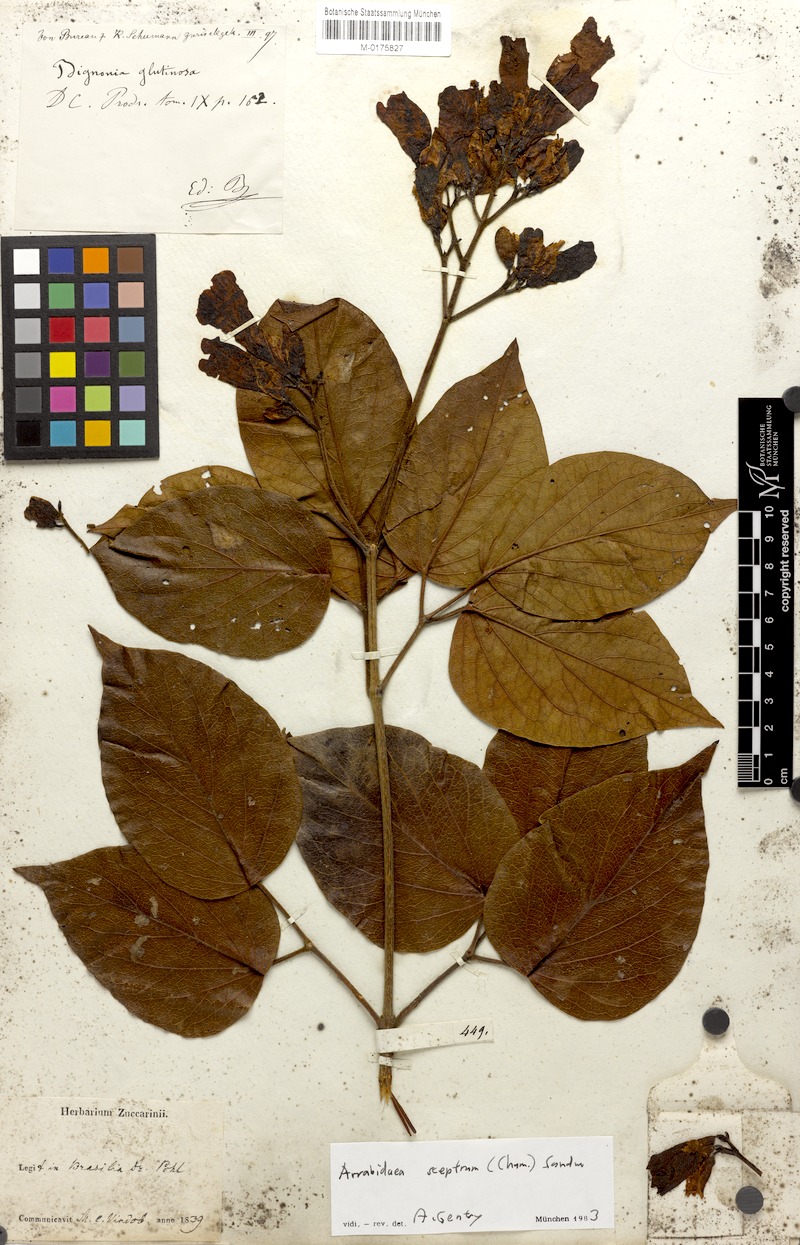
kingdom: Plantae
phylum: Tracheophyta
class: Magnoliopsida
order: Lamiales
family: Bignoniaceae
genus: Cuspidaria
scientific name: Cuspidaria sceptrum
